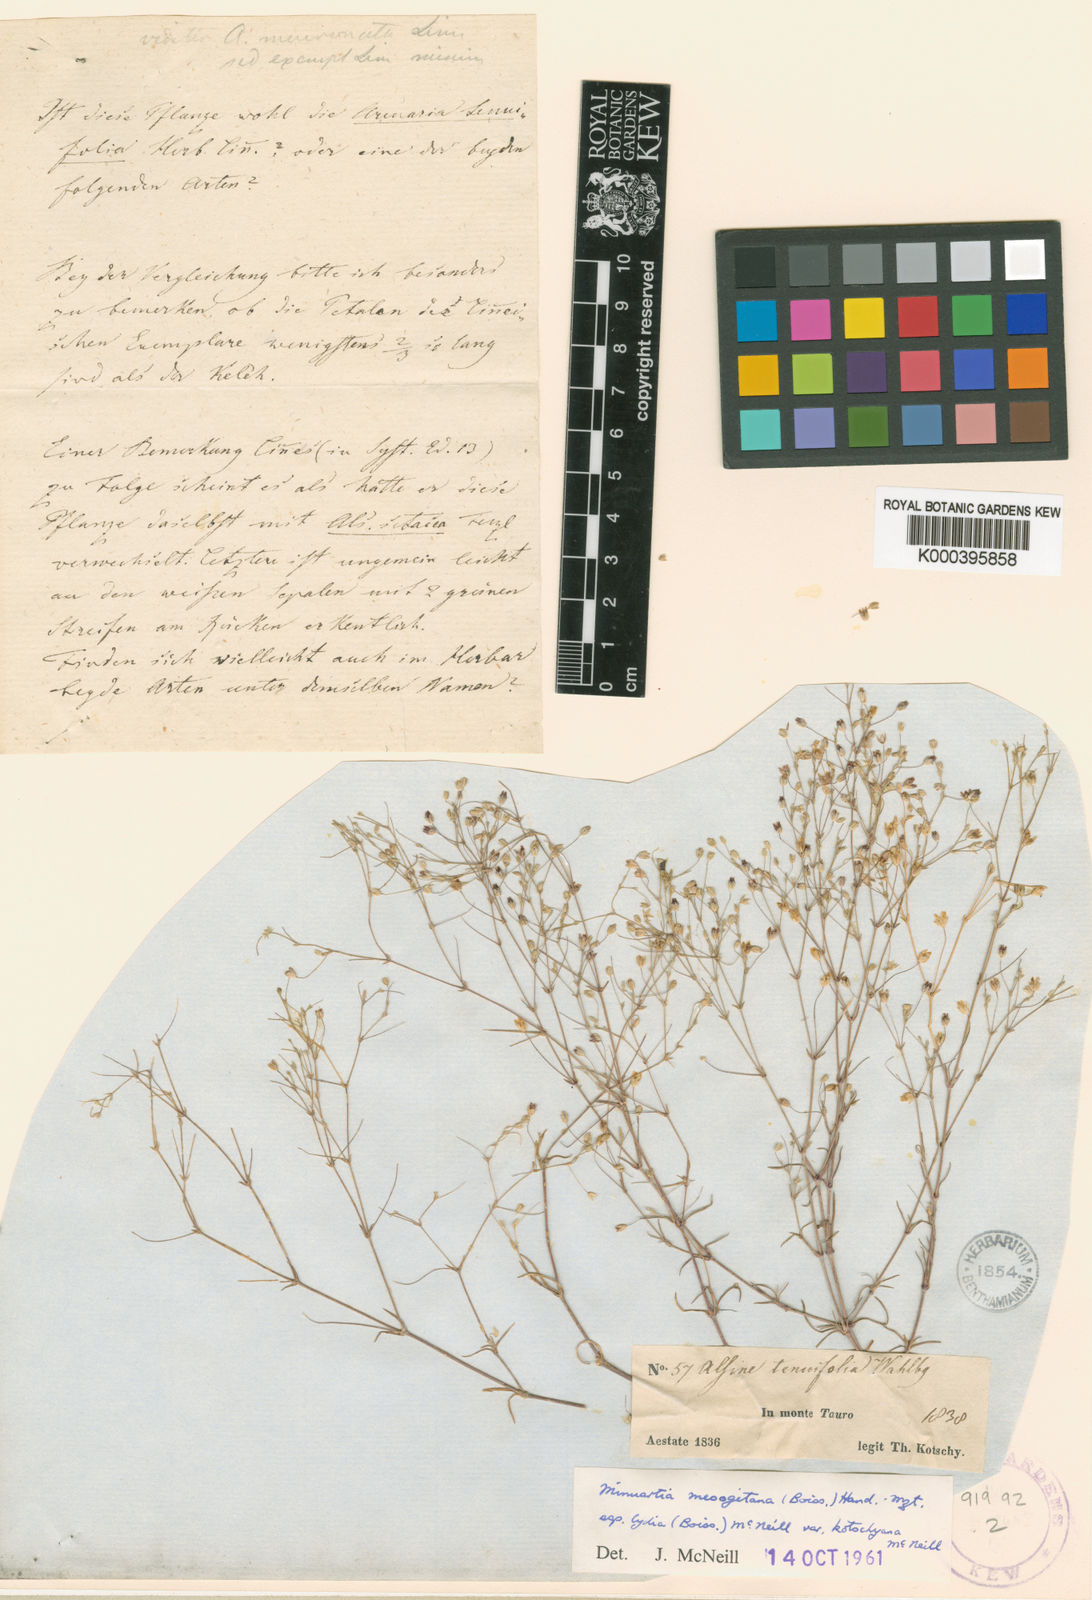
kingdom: Plantae
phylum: Tracheophyta
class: Magnoliopsida
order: Caryophyllales
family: Caryophyllaceae
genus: Sabulina
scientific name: Sabulina mesogitana
